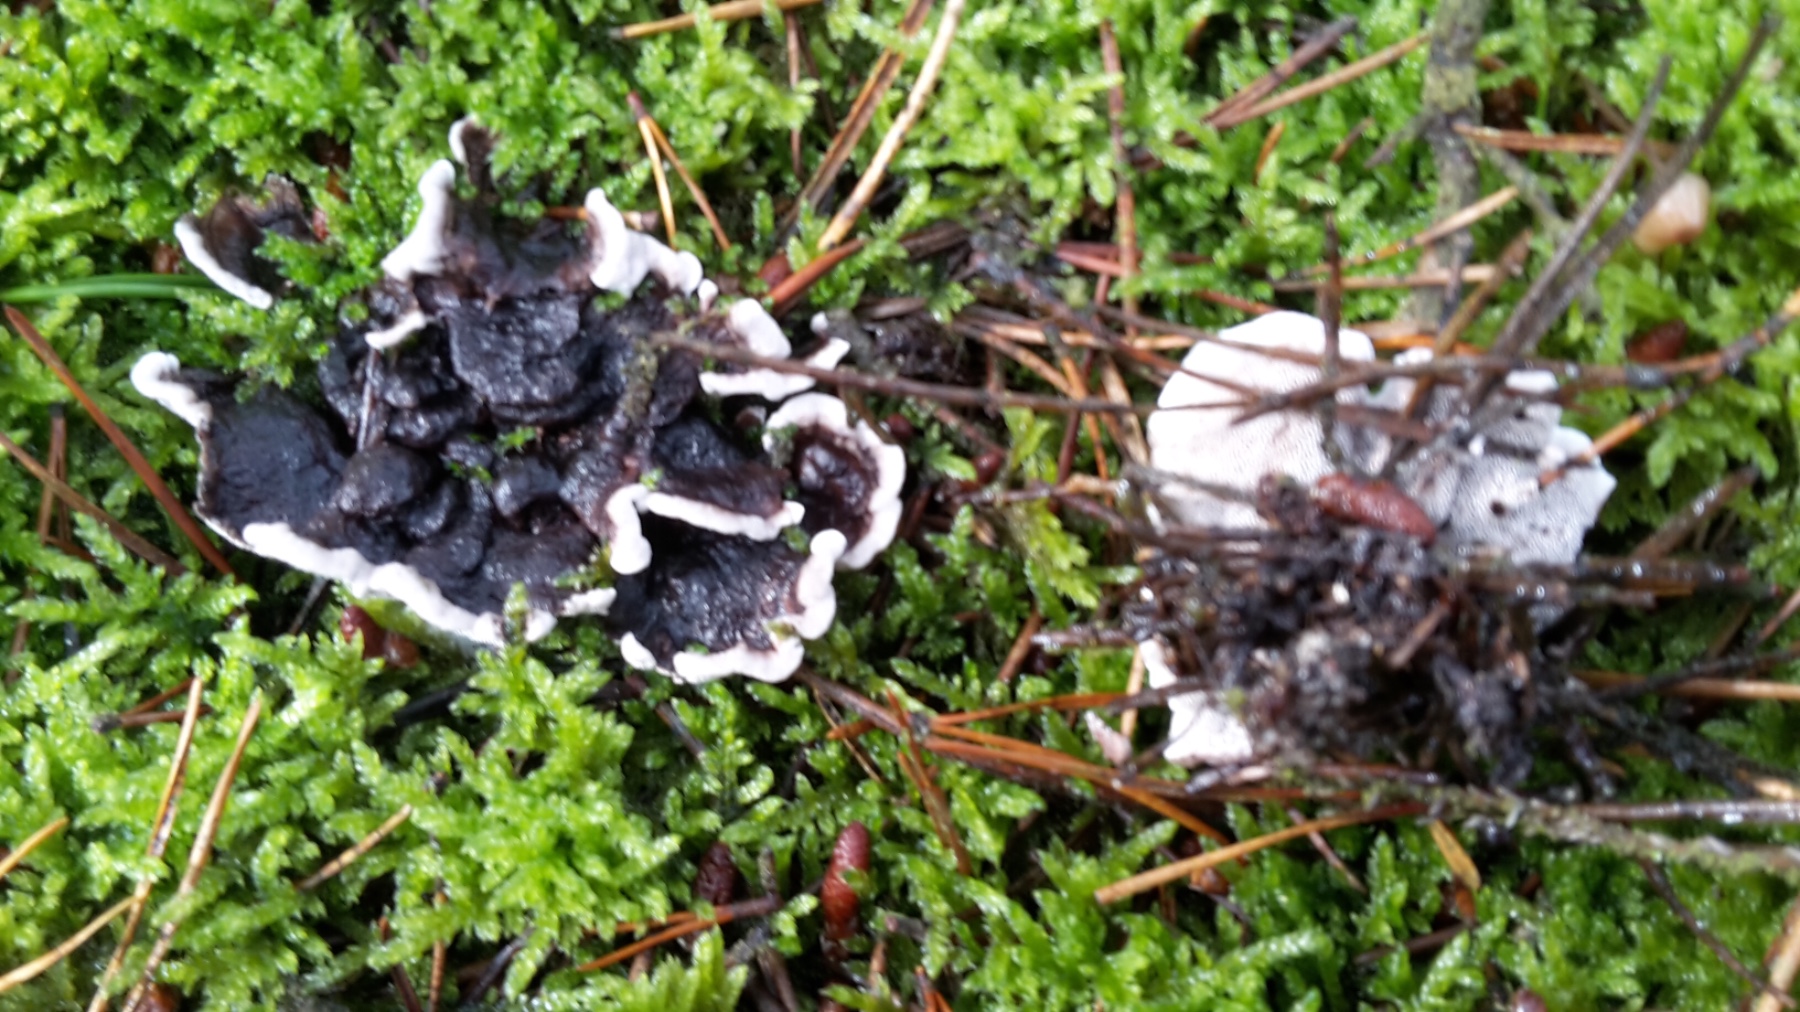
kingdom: Fungi
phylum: Basidiomycota
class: Agaricomycetes
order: Thelephorales
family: Thelephoraceae
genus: Phellodon
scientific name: Phellodon tomentosus
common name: vellugtende duftpigsvamp
